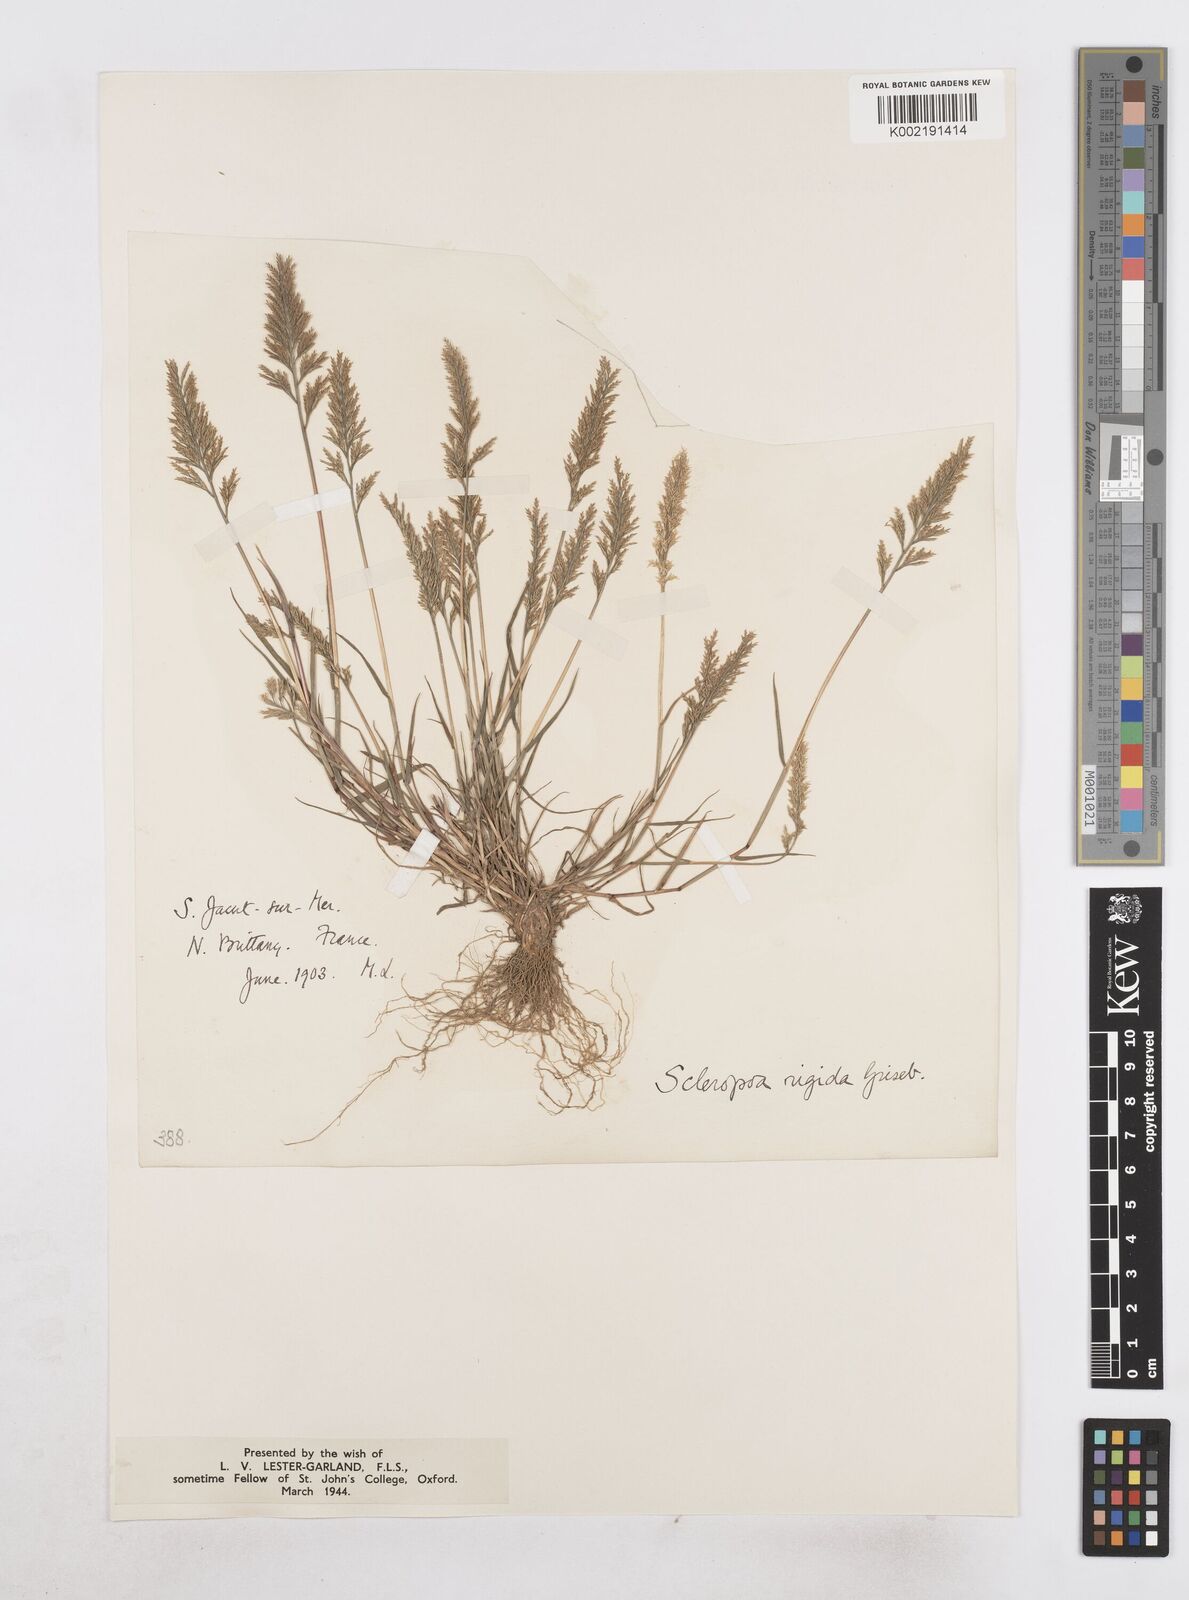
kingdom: Plantae
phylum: Tracheophyta
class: Liliopsida
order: Poales
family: Poaceae
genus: Catapodium
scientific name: Catapodium rigidum
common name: Fern-grass
